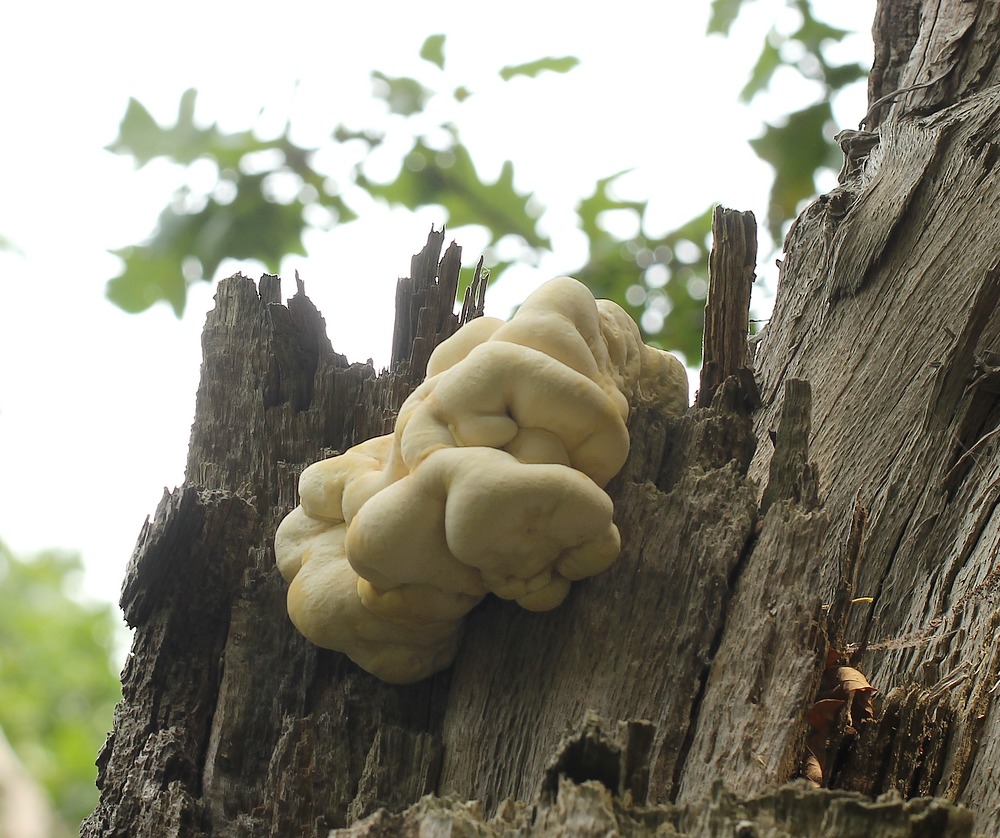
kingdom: Fungi
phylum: Basidiomycota
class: Agaricomycetes
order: Polyporales
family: Laetiporaceae
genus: Laetiporus
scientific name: Laetiporus sulphureus
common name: svovlporesvamp
